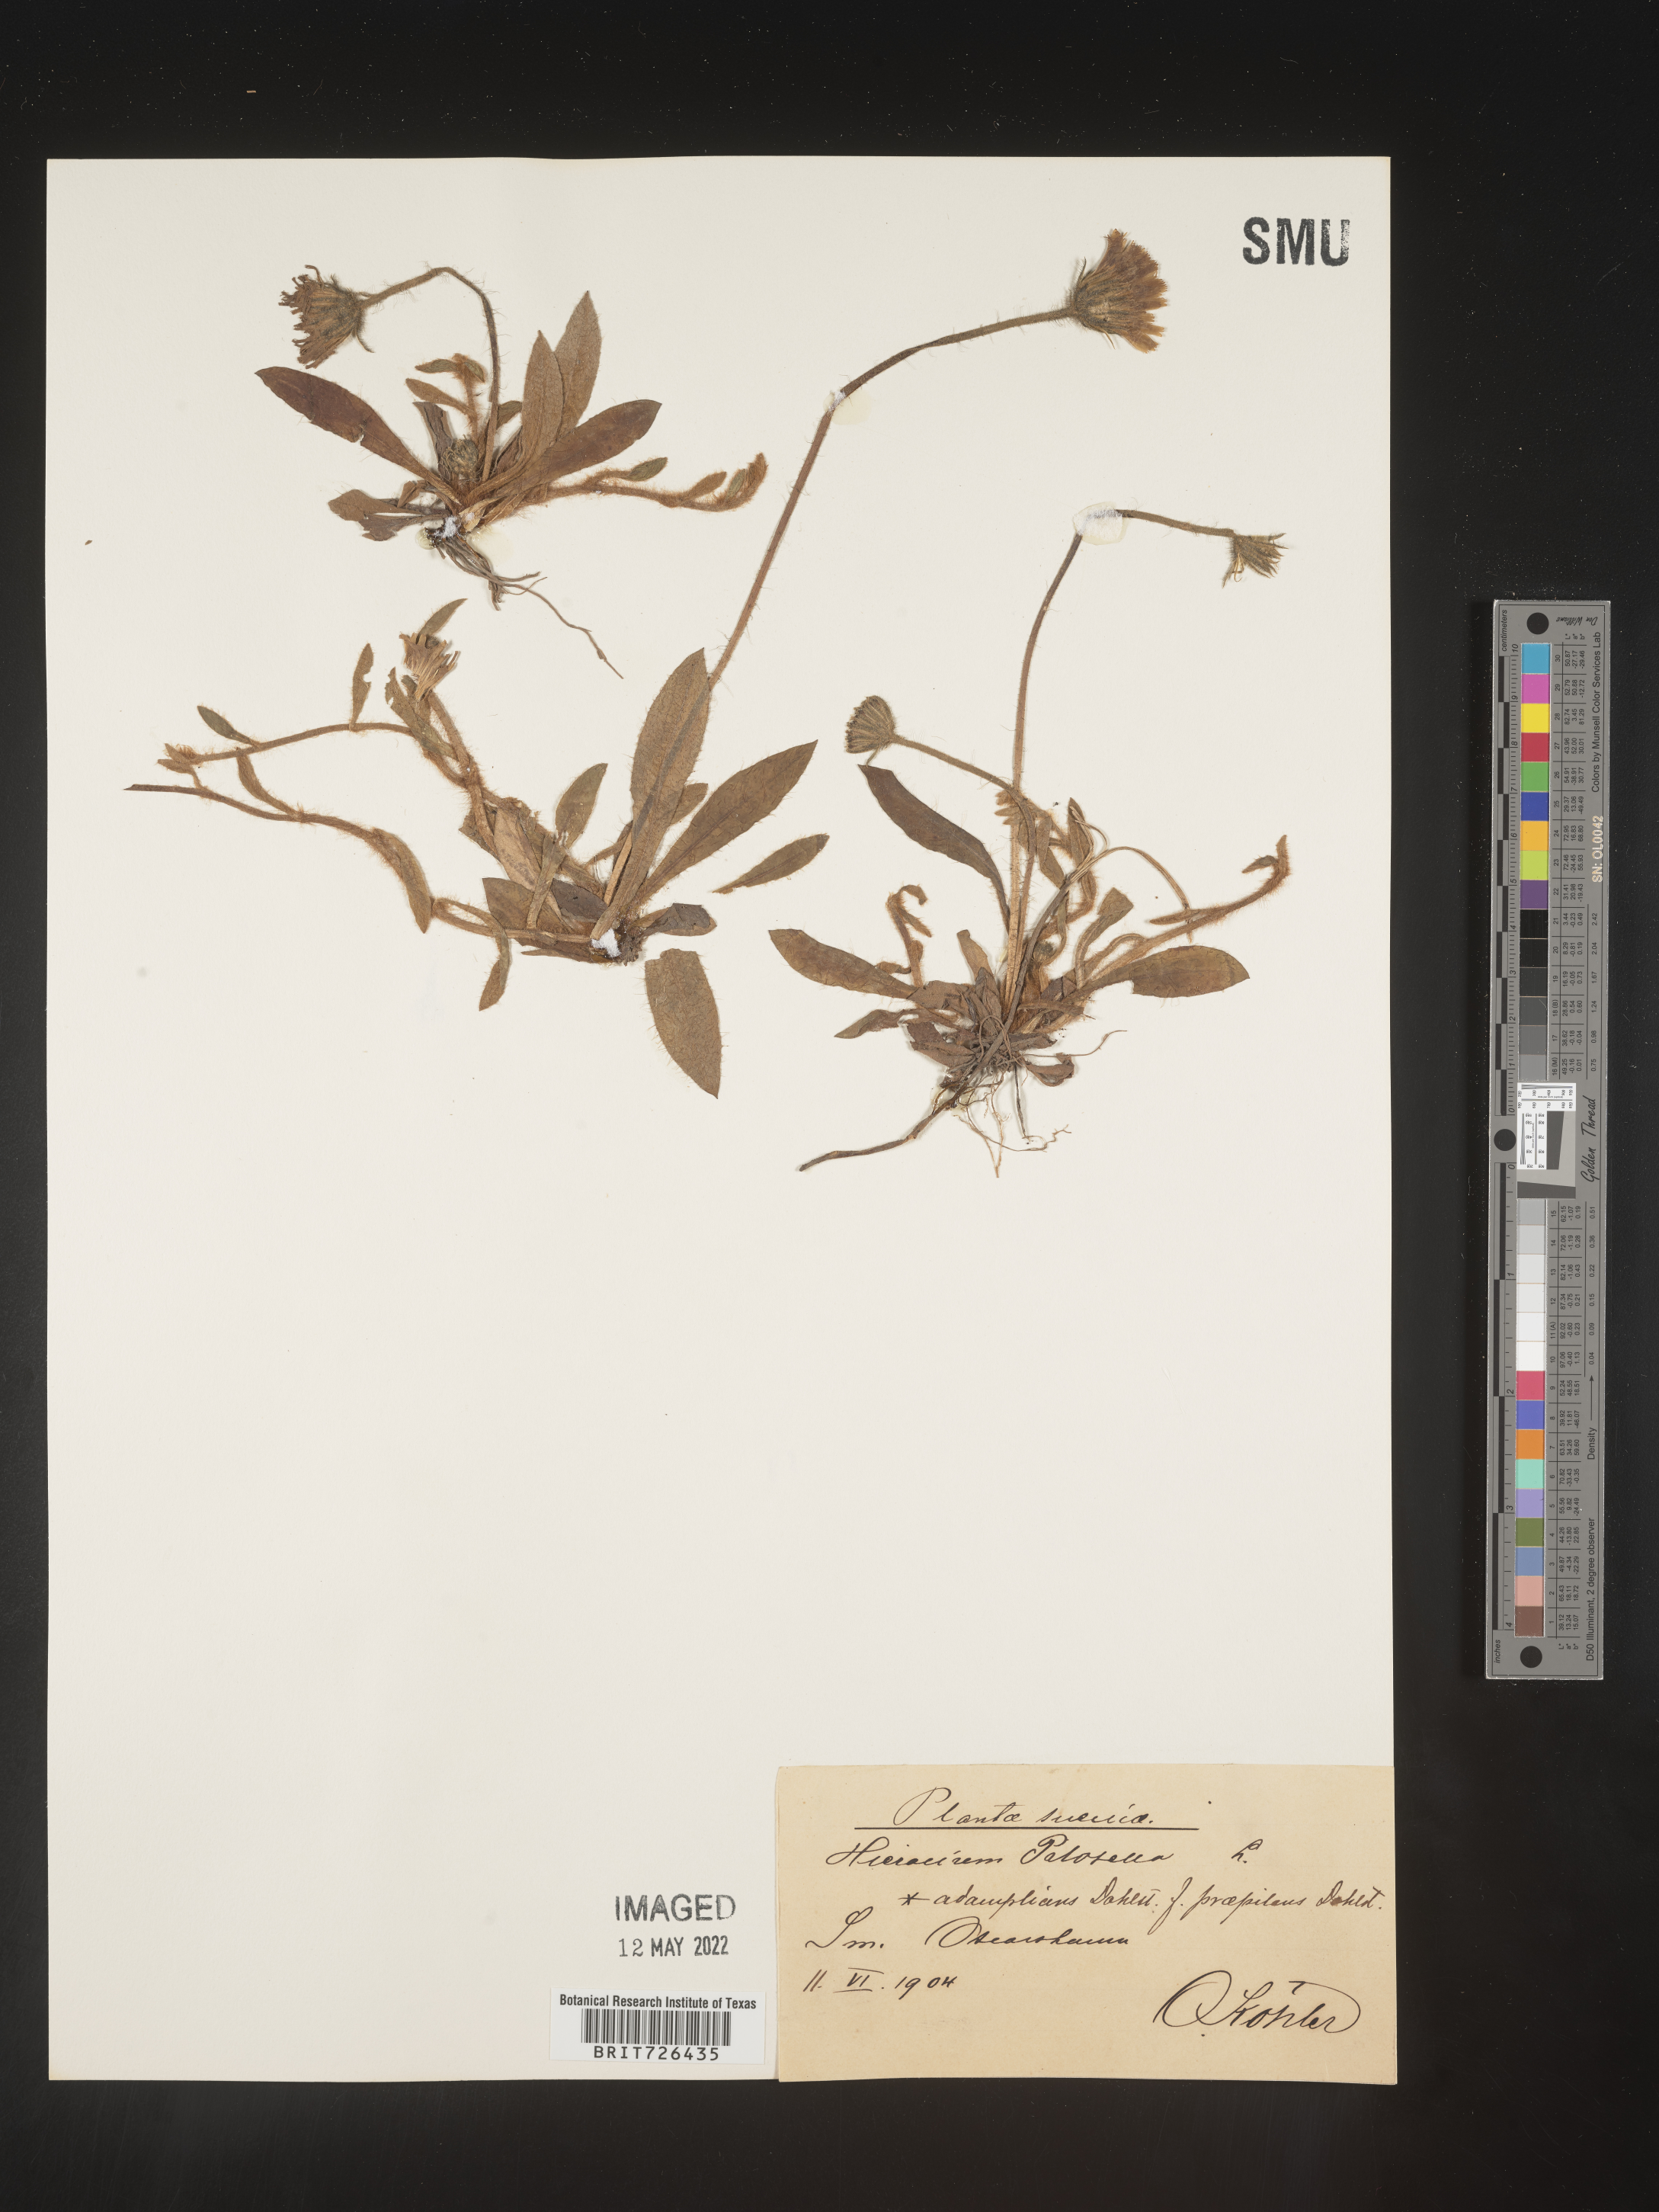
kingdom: Plantae
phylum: Tracheophyta
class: Magnoliopsida
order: Asterales
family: Asteraceae
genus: Hieracium
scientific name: Hieracium
